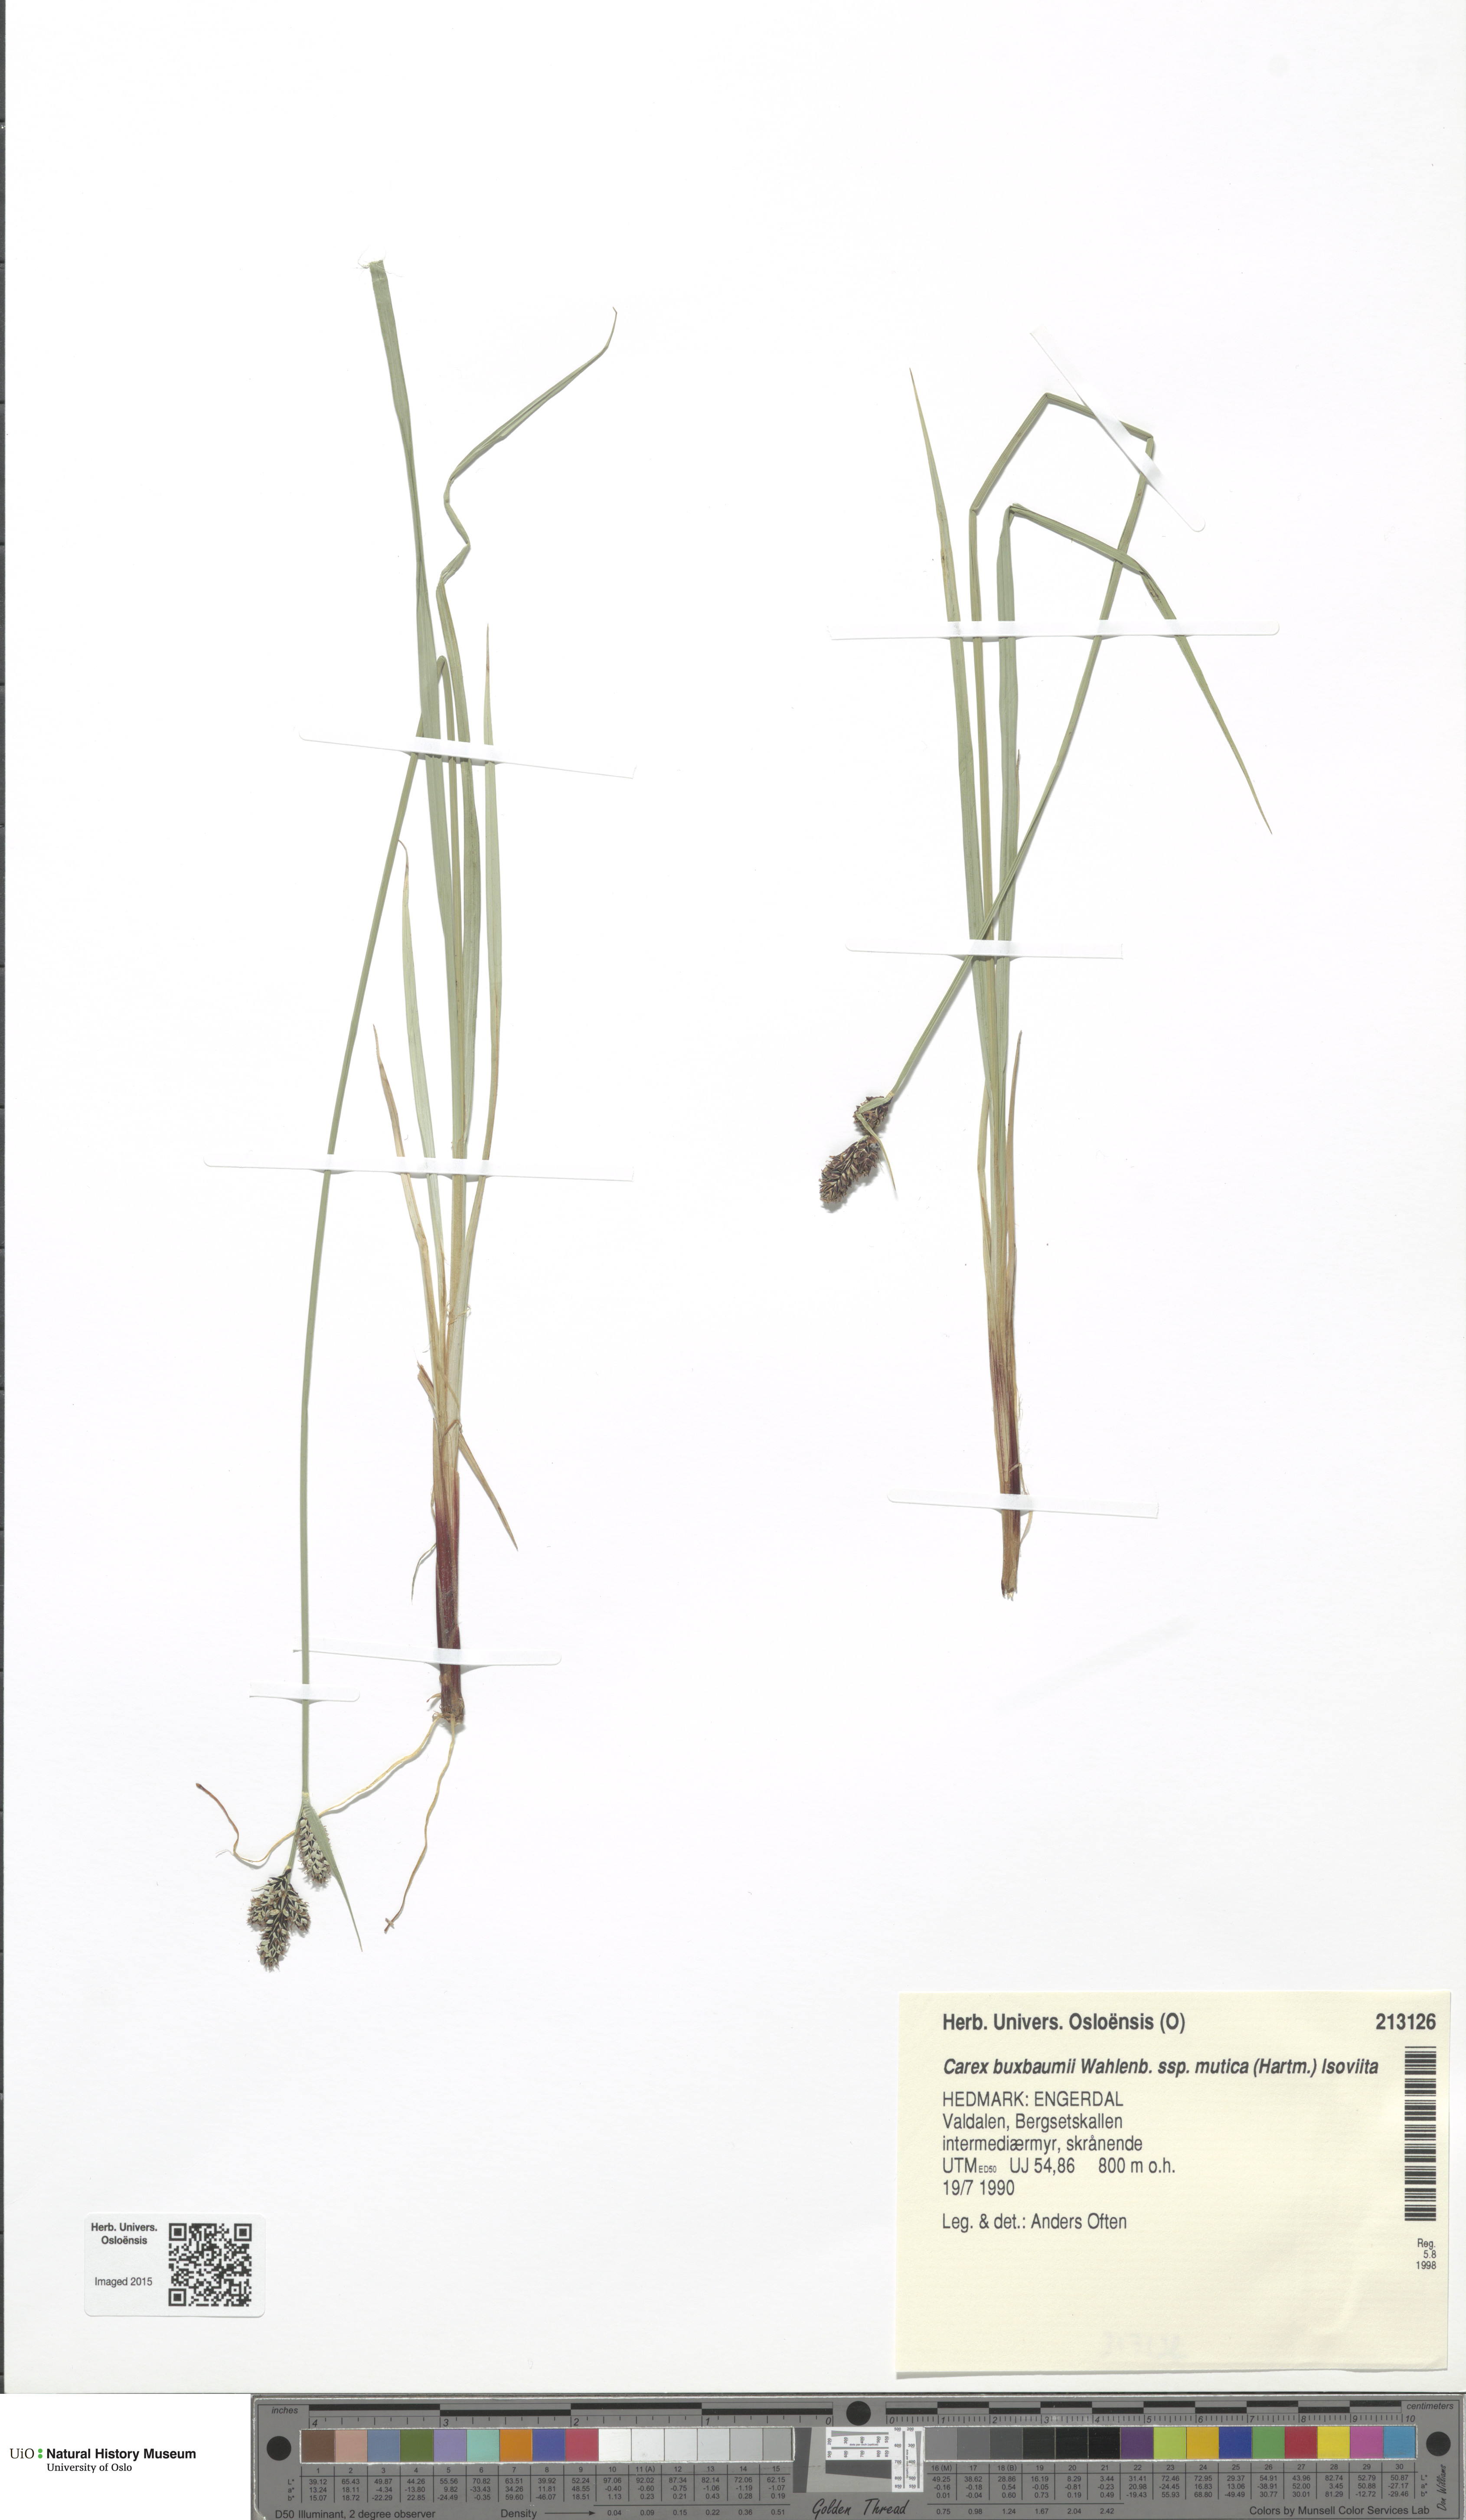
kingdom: Plantae
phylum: Tracheophyta
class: Magnoliopsida
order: Brassicales
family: Brassicaceae
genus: Draba
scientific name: Draba alpina
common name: Alpine draba
